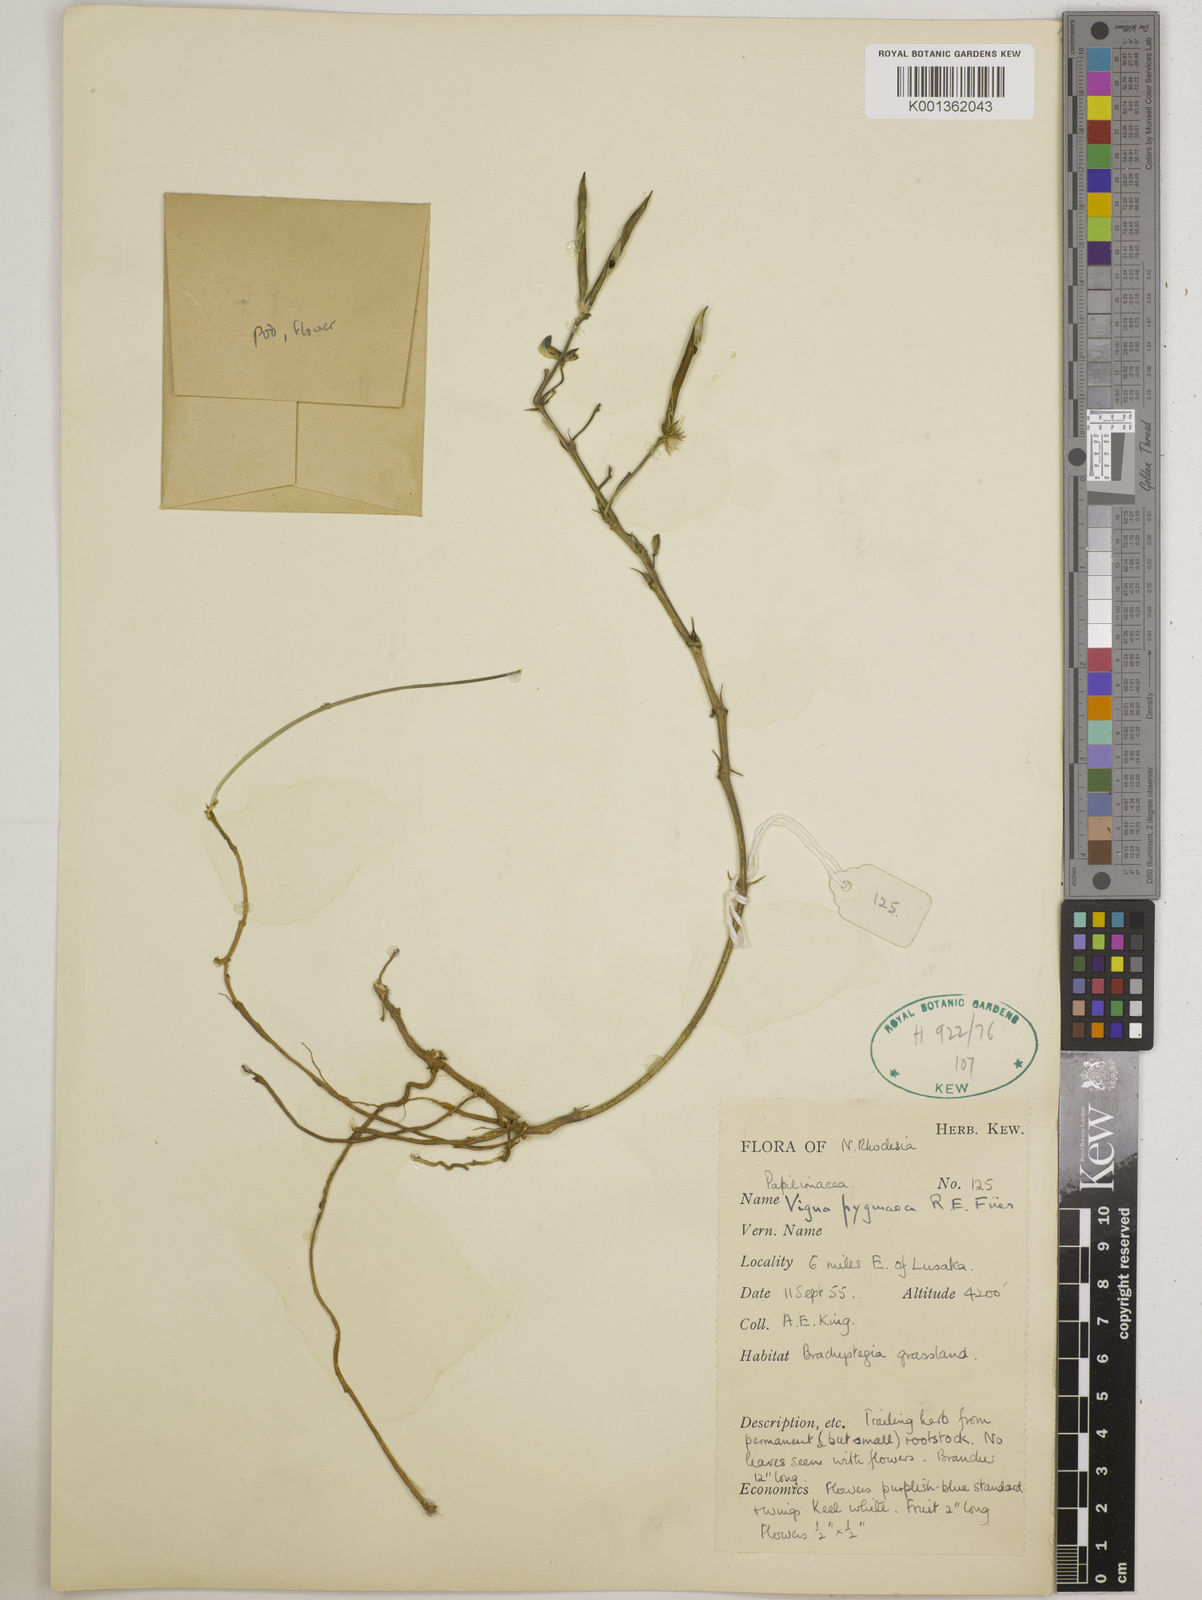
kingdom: Plantae
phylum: Tracheophyta
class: Magnoliopsida
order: Fabales
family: Fabaceae
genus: Vigna
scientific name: Vigna pygmaea
